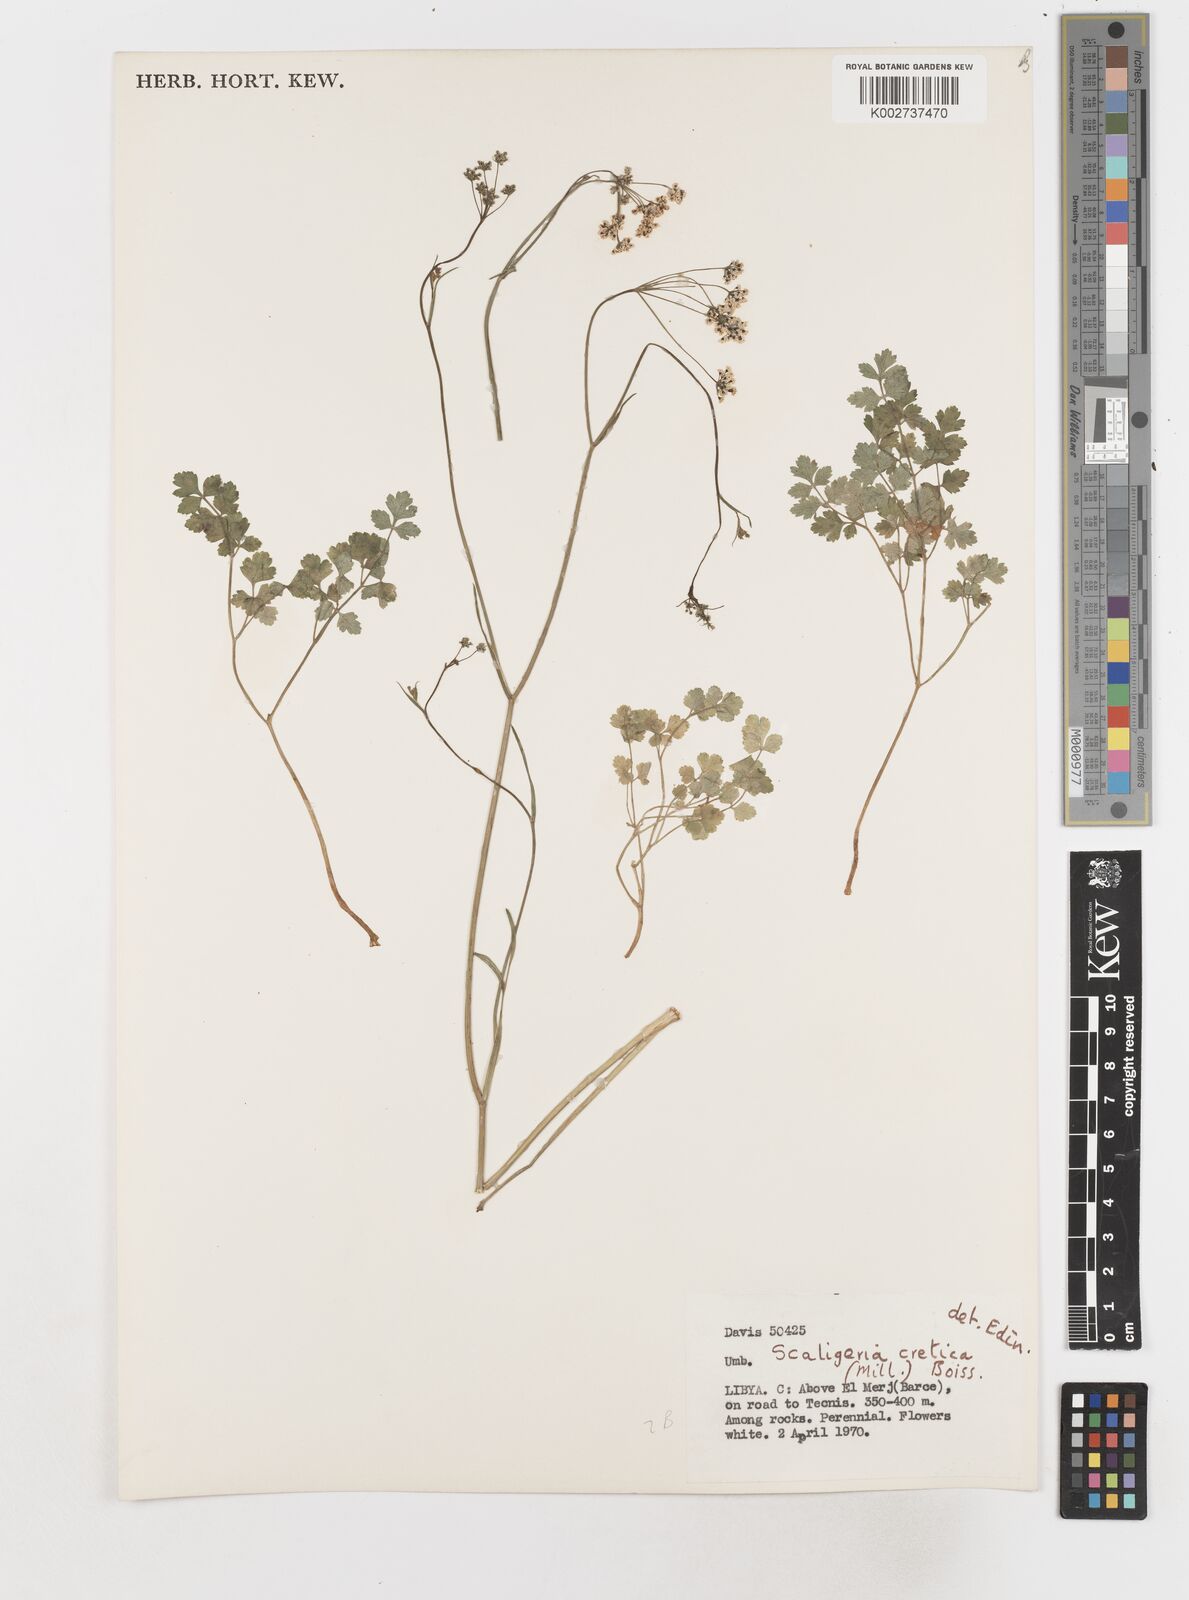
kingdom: Plantae
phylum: Tracheophyta
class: Magnoliopsida
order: Apiales
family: Apiaceae
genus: Scaligeria
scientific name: Scaligeria napiformis
